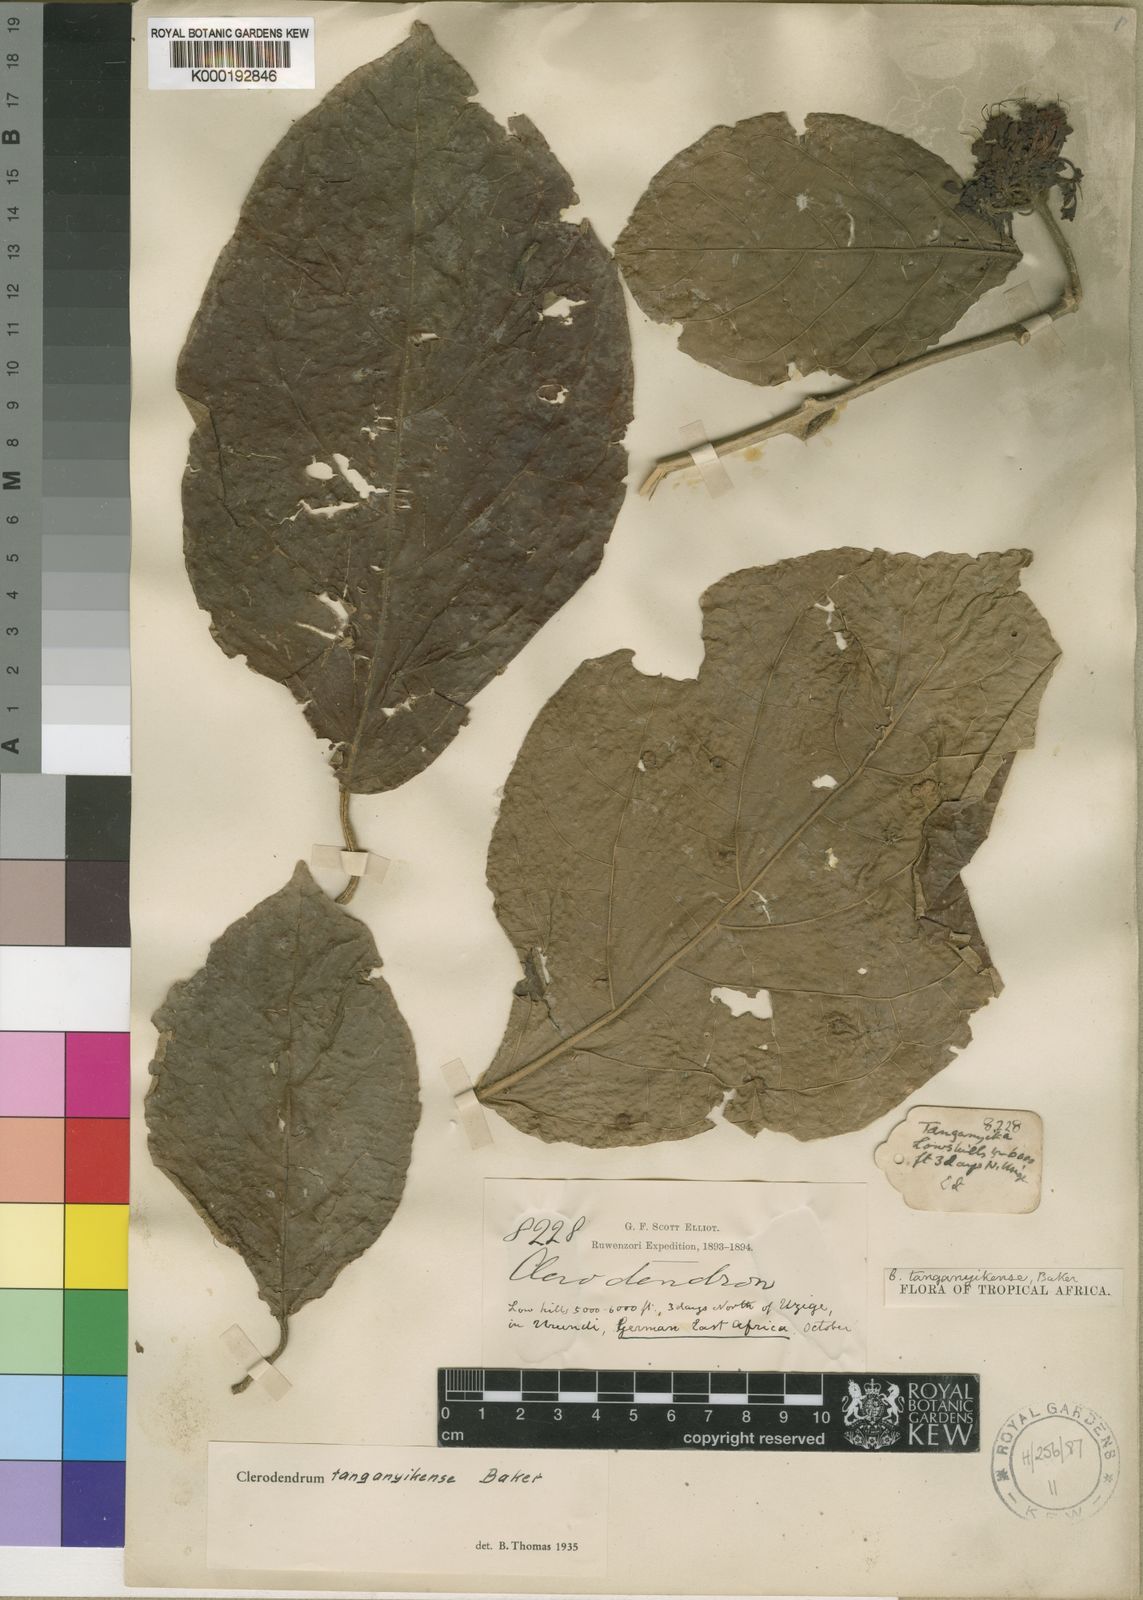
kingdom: Plantae
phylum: Tracheophyta
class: Magnoliopsida
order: Lamiales
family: Lamiaceae
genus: Clerodendrum
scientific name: Clerodendrum tanganyikense
